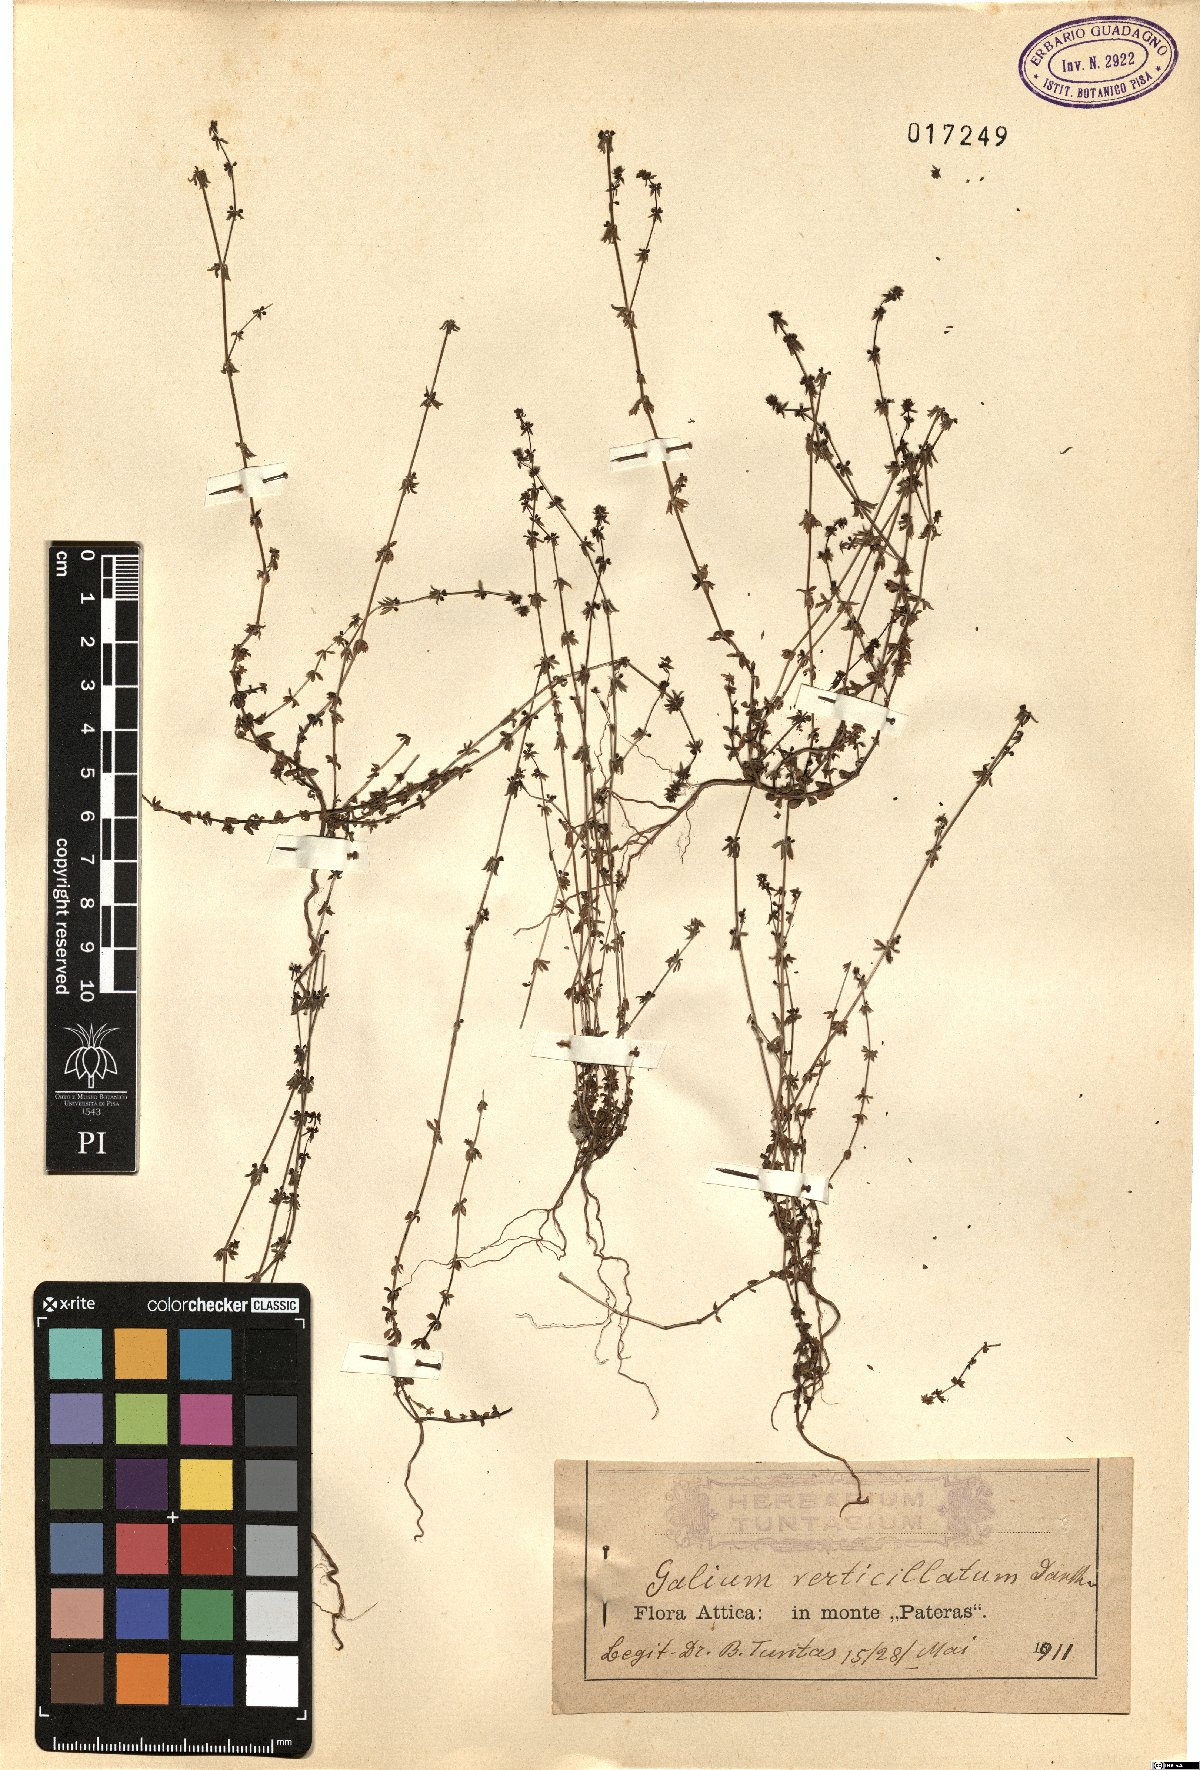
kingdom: Plantae
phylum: Tracheophyta
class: Magnoliopsida
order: Gentianales
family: Rubiaceae
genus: Galium
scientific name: Galium verticillatum
